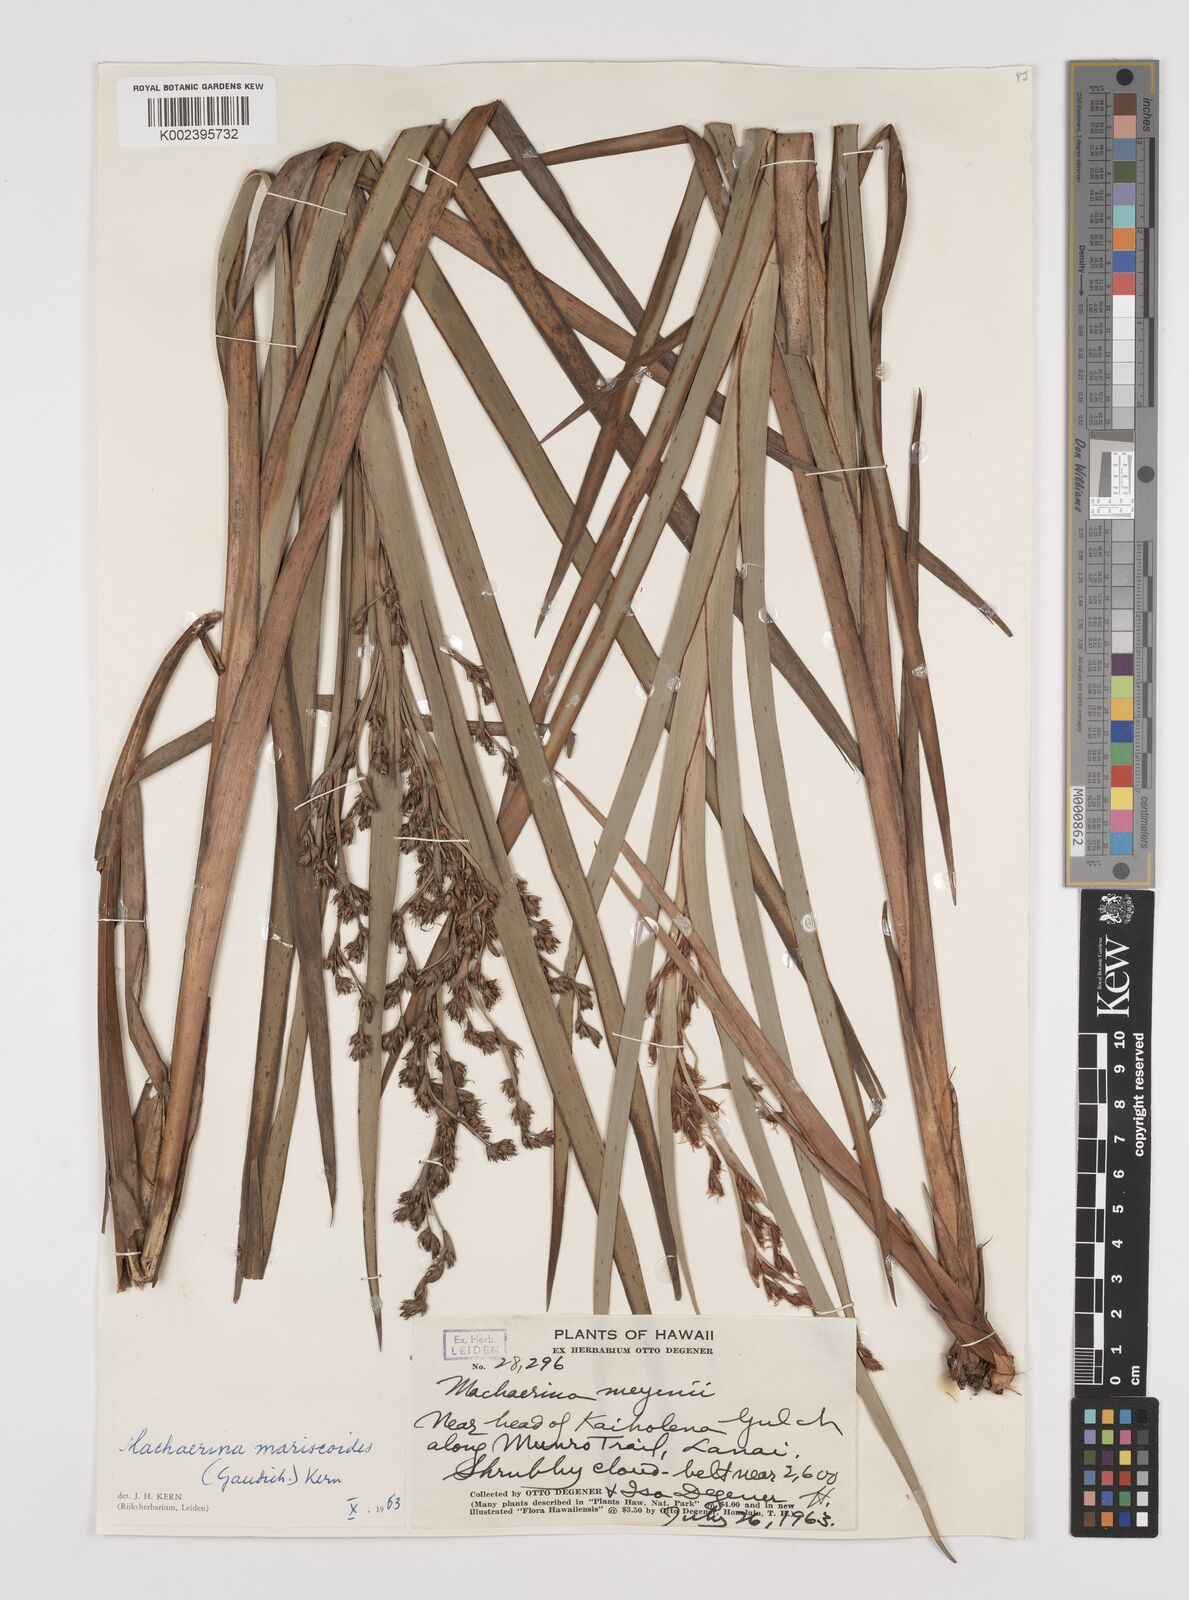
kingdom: Plantae
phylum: Tracheophyta
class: Liliopsida
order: Poales
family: Cyperaceae
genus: Machaerina
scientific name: Machaerina mariscoides
